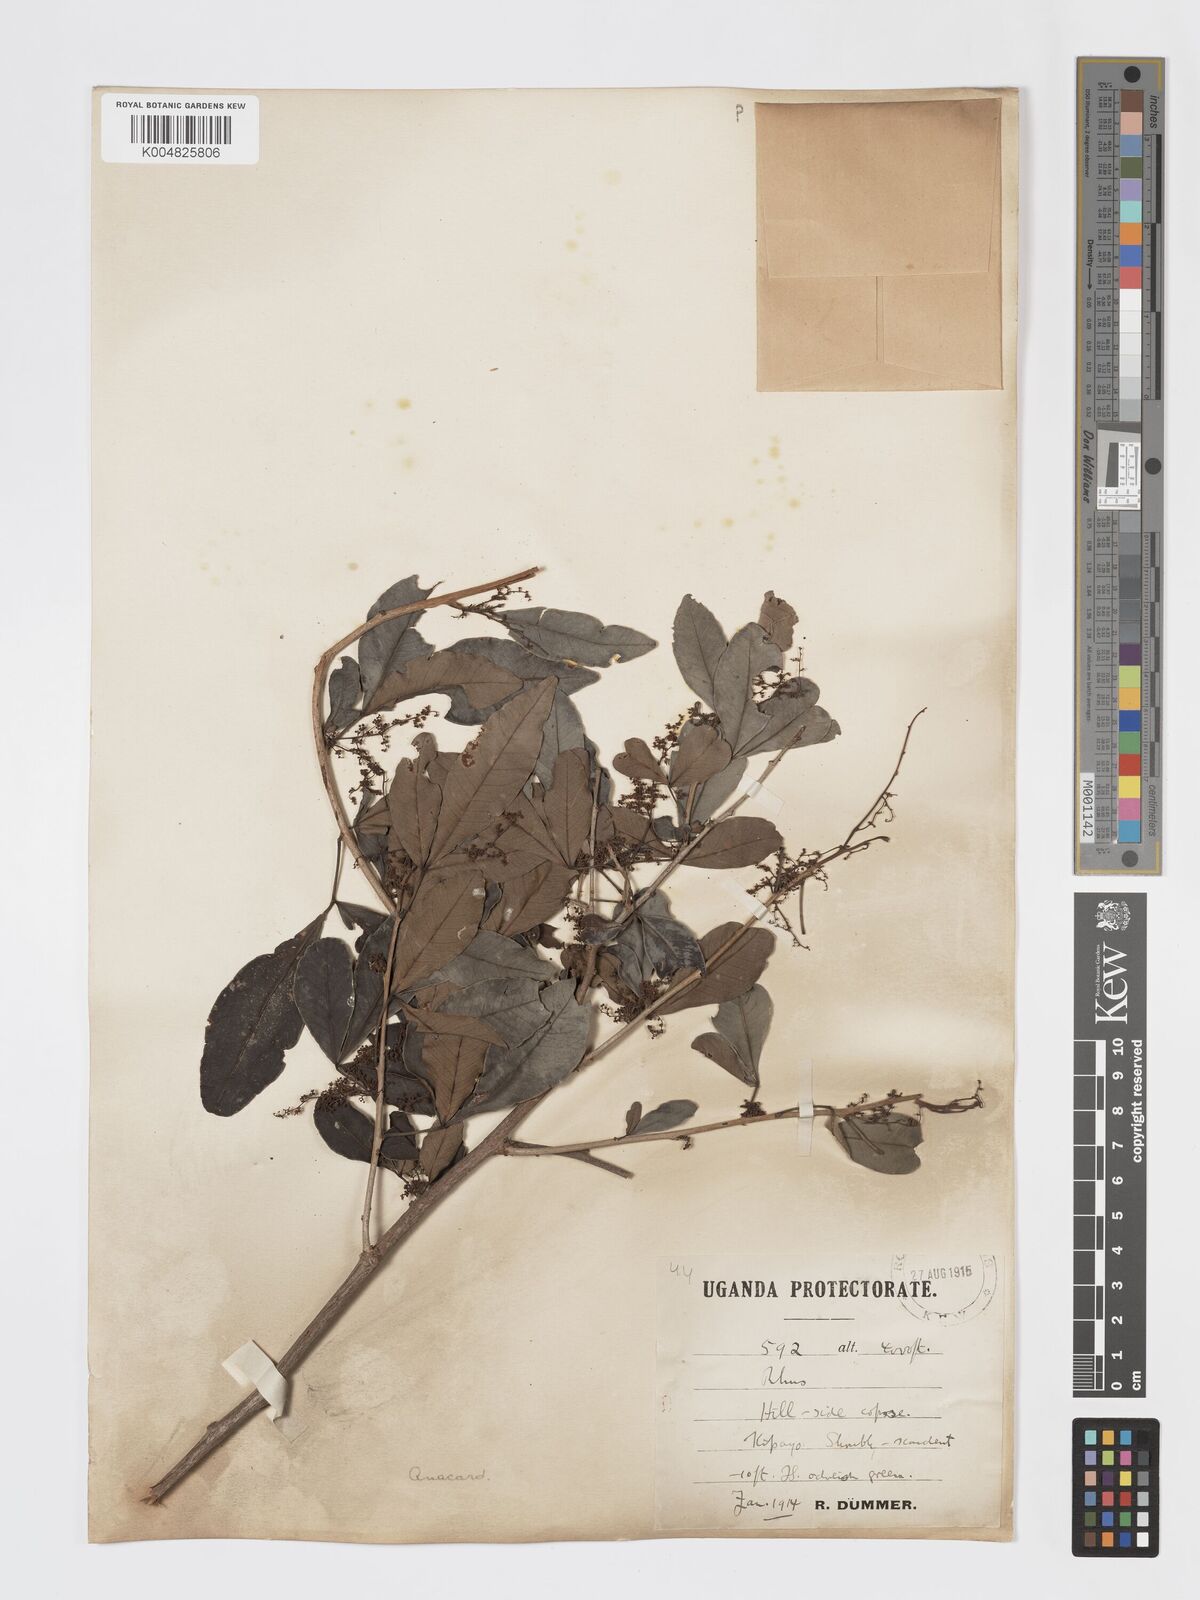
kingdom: Plantae
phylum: Tracheophyta
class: Magnoliopsida
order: Sapindales
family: Anacardiaceae
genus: Searsia
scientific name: Searsia natalensis
